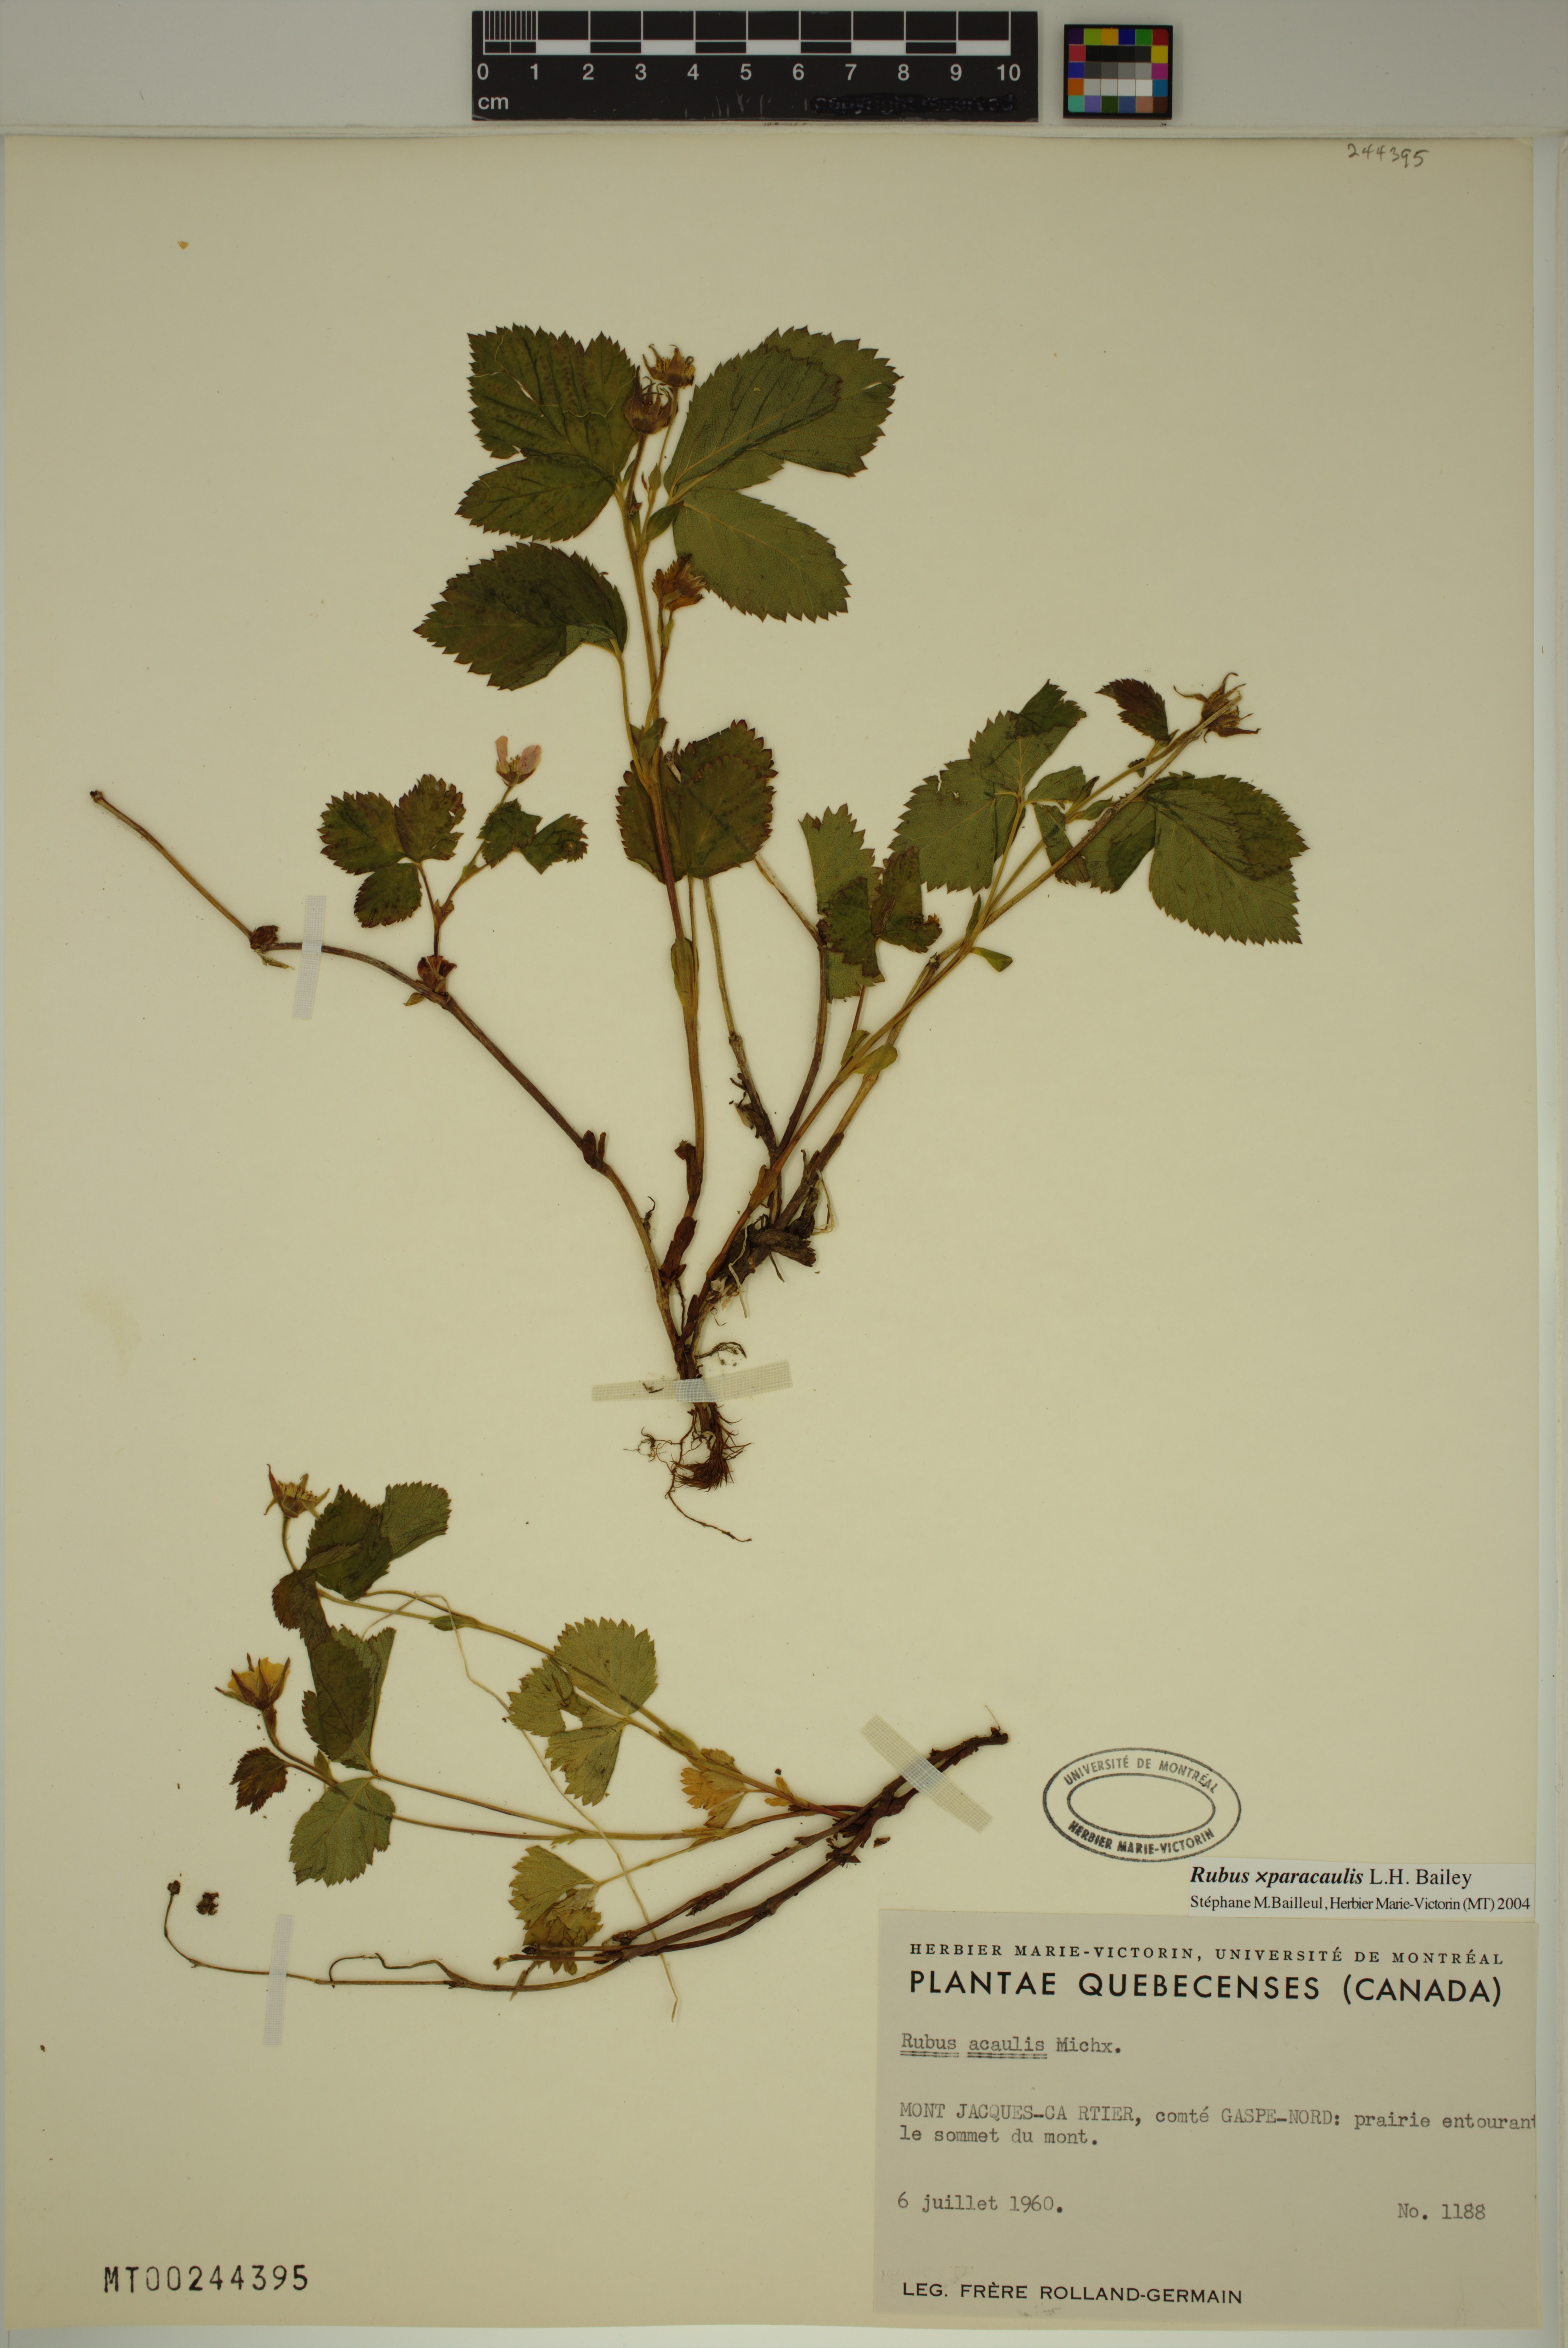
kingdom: Plantae
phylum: Tracheophyta
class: Magnoliopsida
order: Rosales
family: Rosaceae
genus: Rubus
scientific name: Rubus paracaulis
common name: Dwarf white-flowered raspberry
